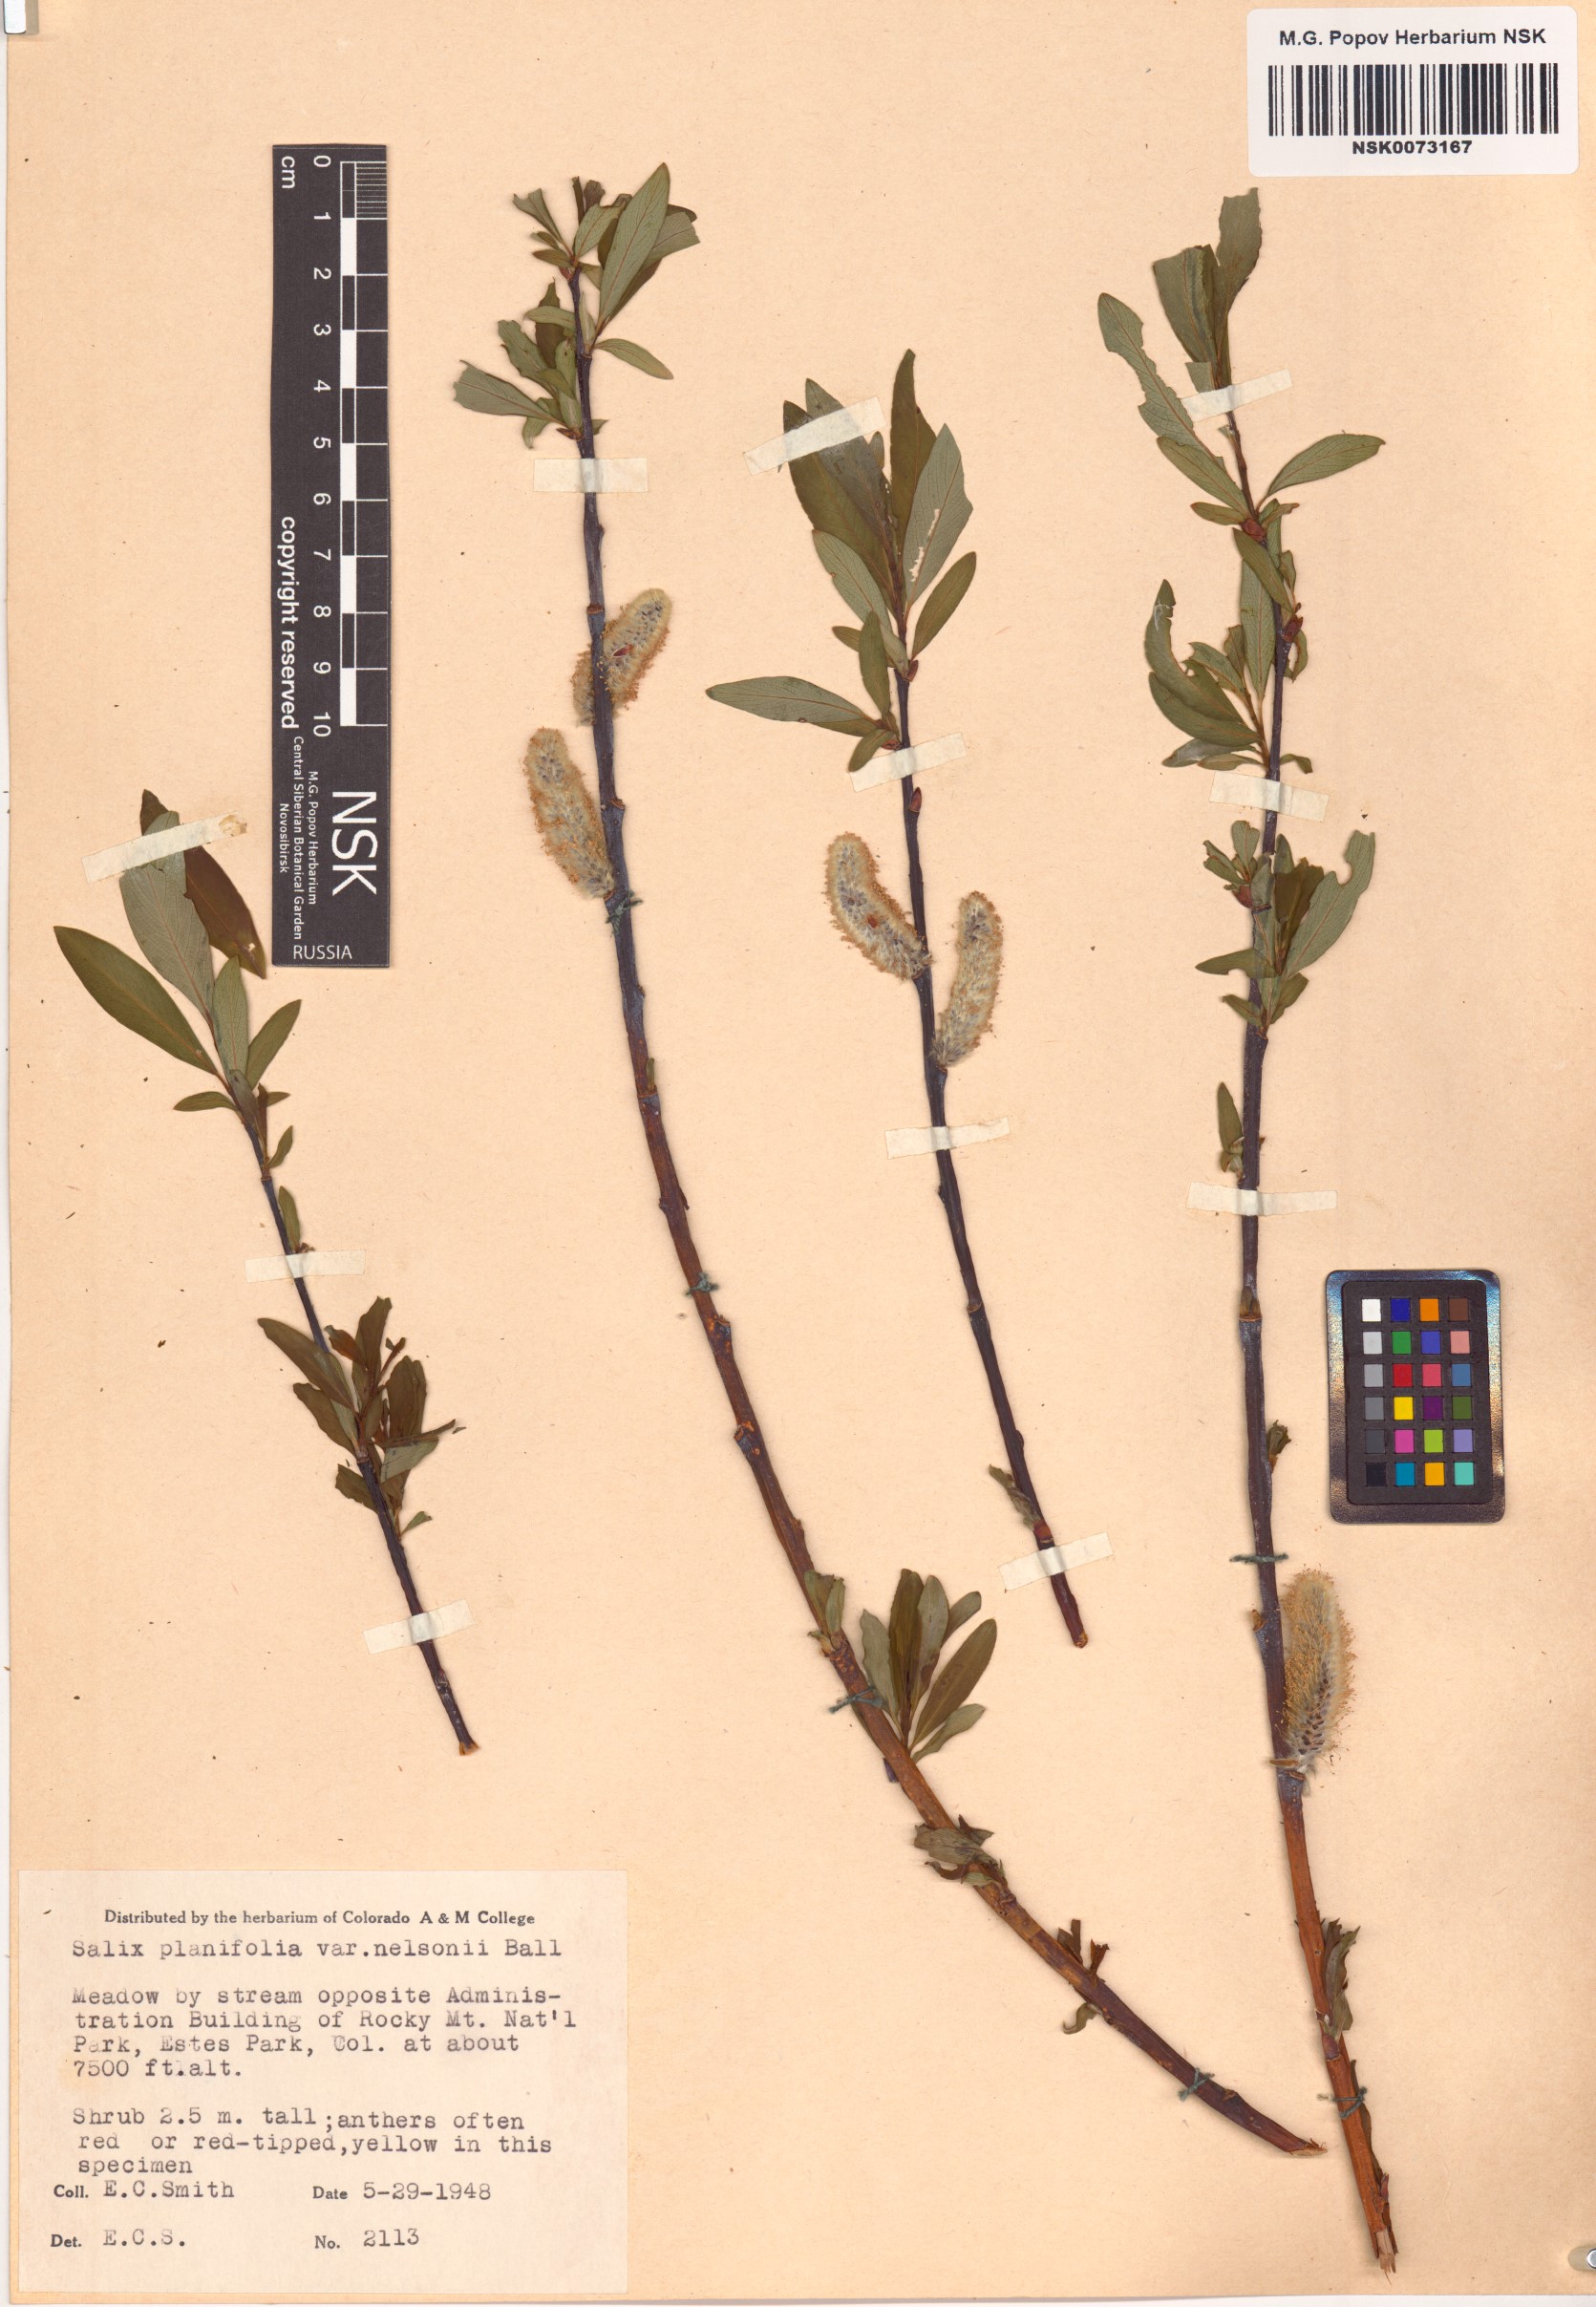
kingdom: Plantae
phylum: Tracheophyta
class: Magnoliopsida
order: Malpighiales
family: Salicaceae
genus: Salix
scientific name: Salix planifolia
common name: Mountain willow
